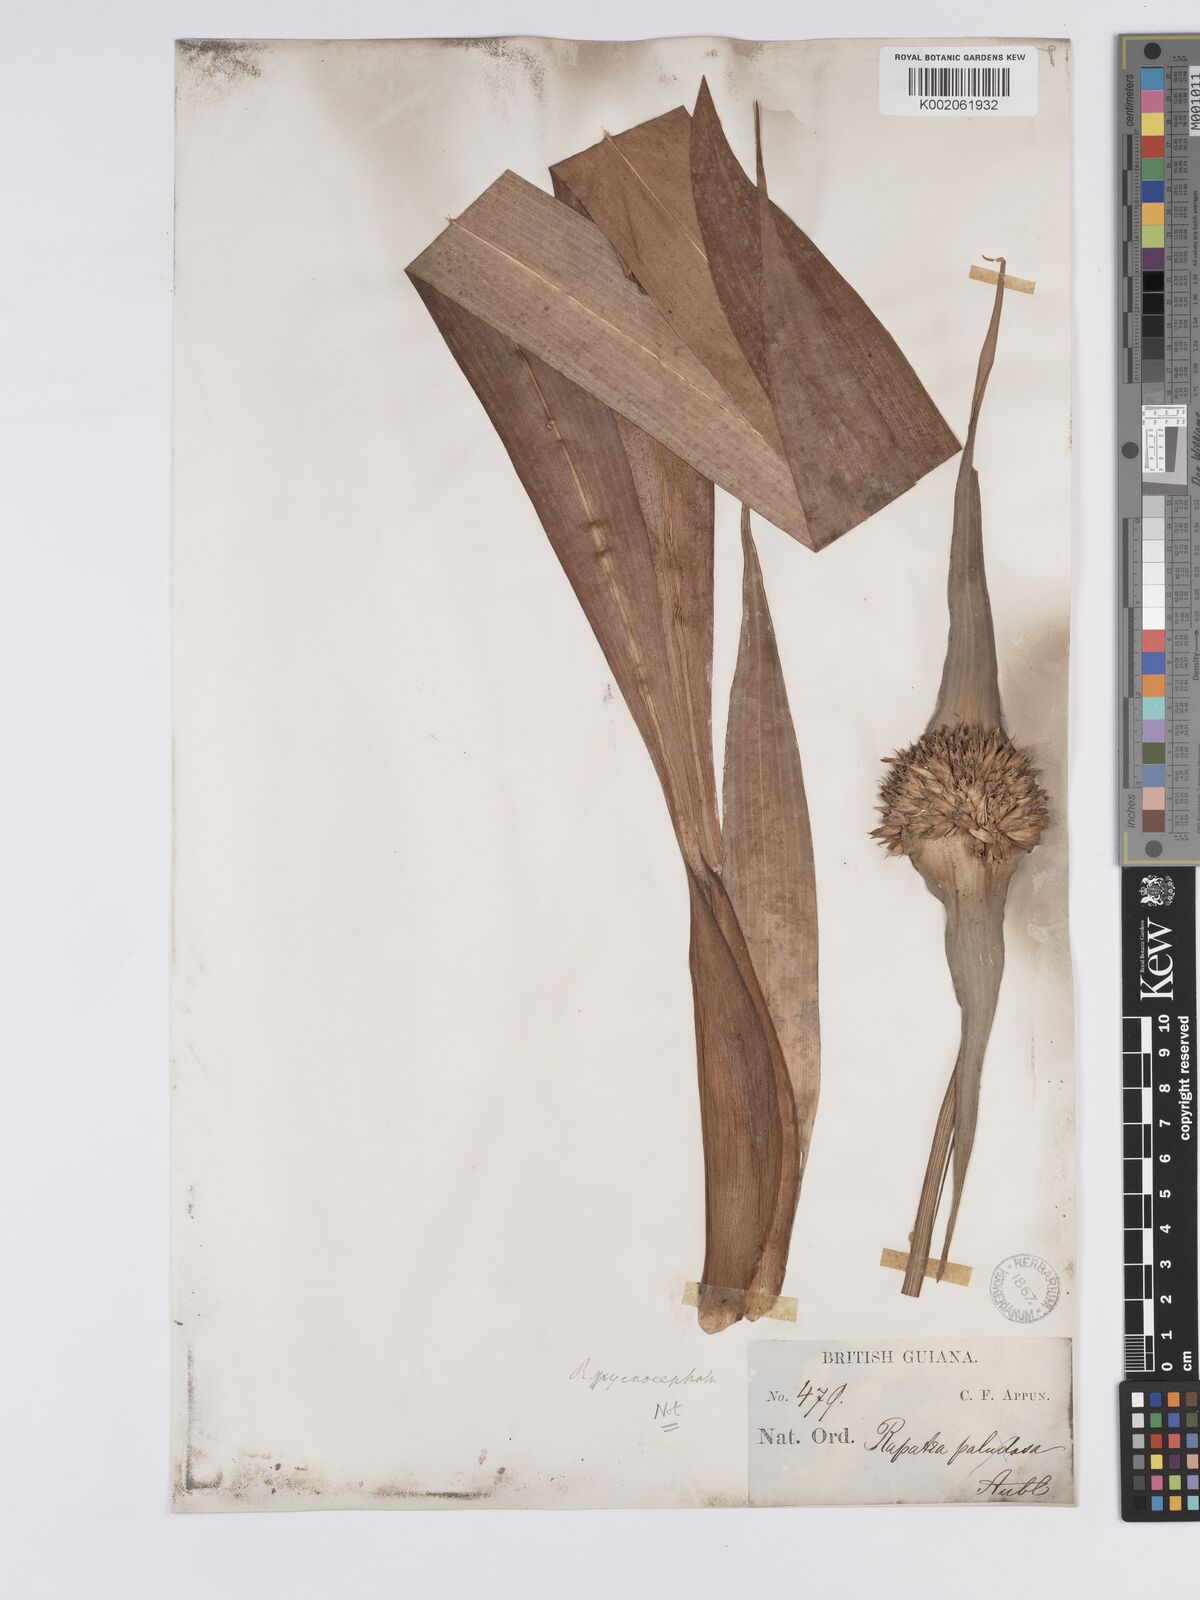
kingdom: Plantae
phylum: Tracheophyta
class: Liliopsida
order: Poales
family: Rapateaceae
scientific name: Rapateaceae
